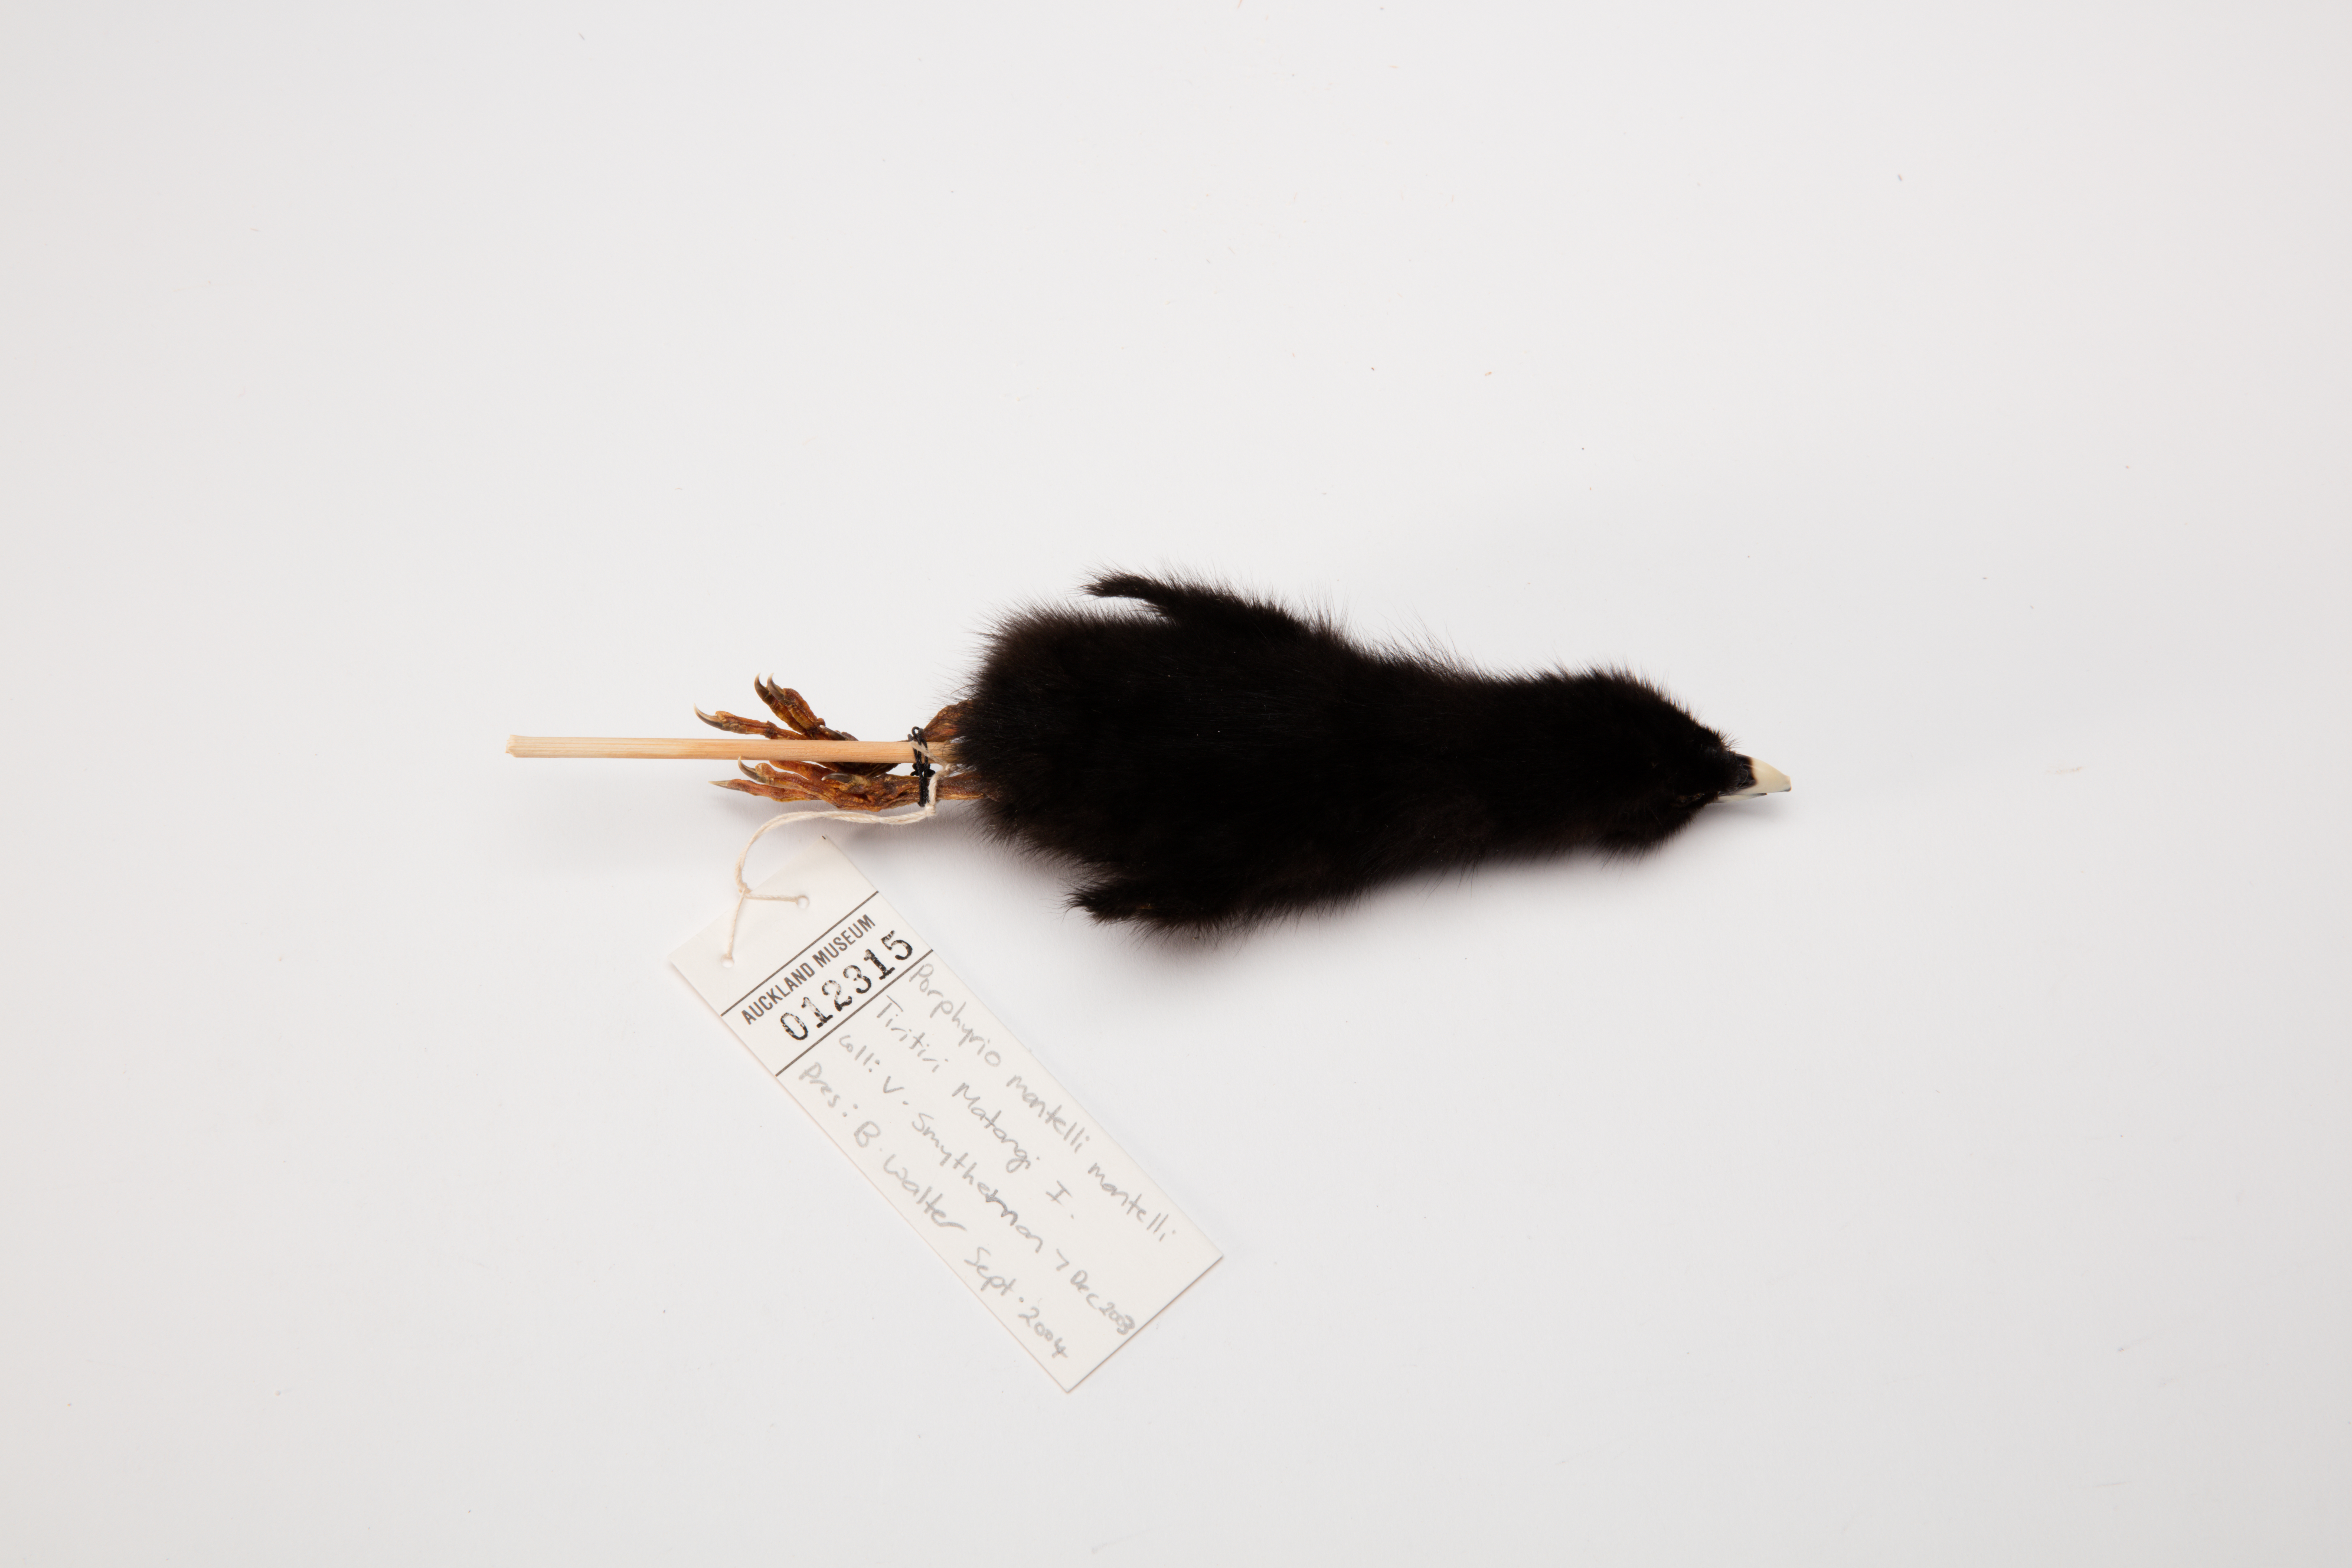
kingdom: Animalia
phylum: Chordata
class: Aves
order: Gruiformes
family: Rallidae
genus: Porphyrio
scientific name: Porphyrio hochstetteri
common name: South island takahe
